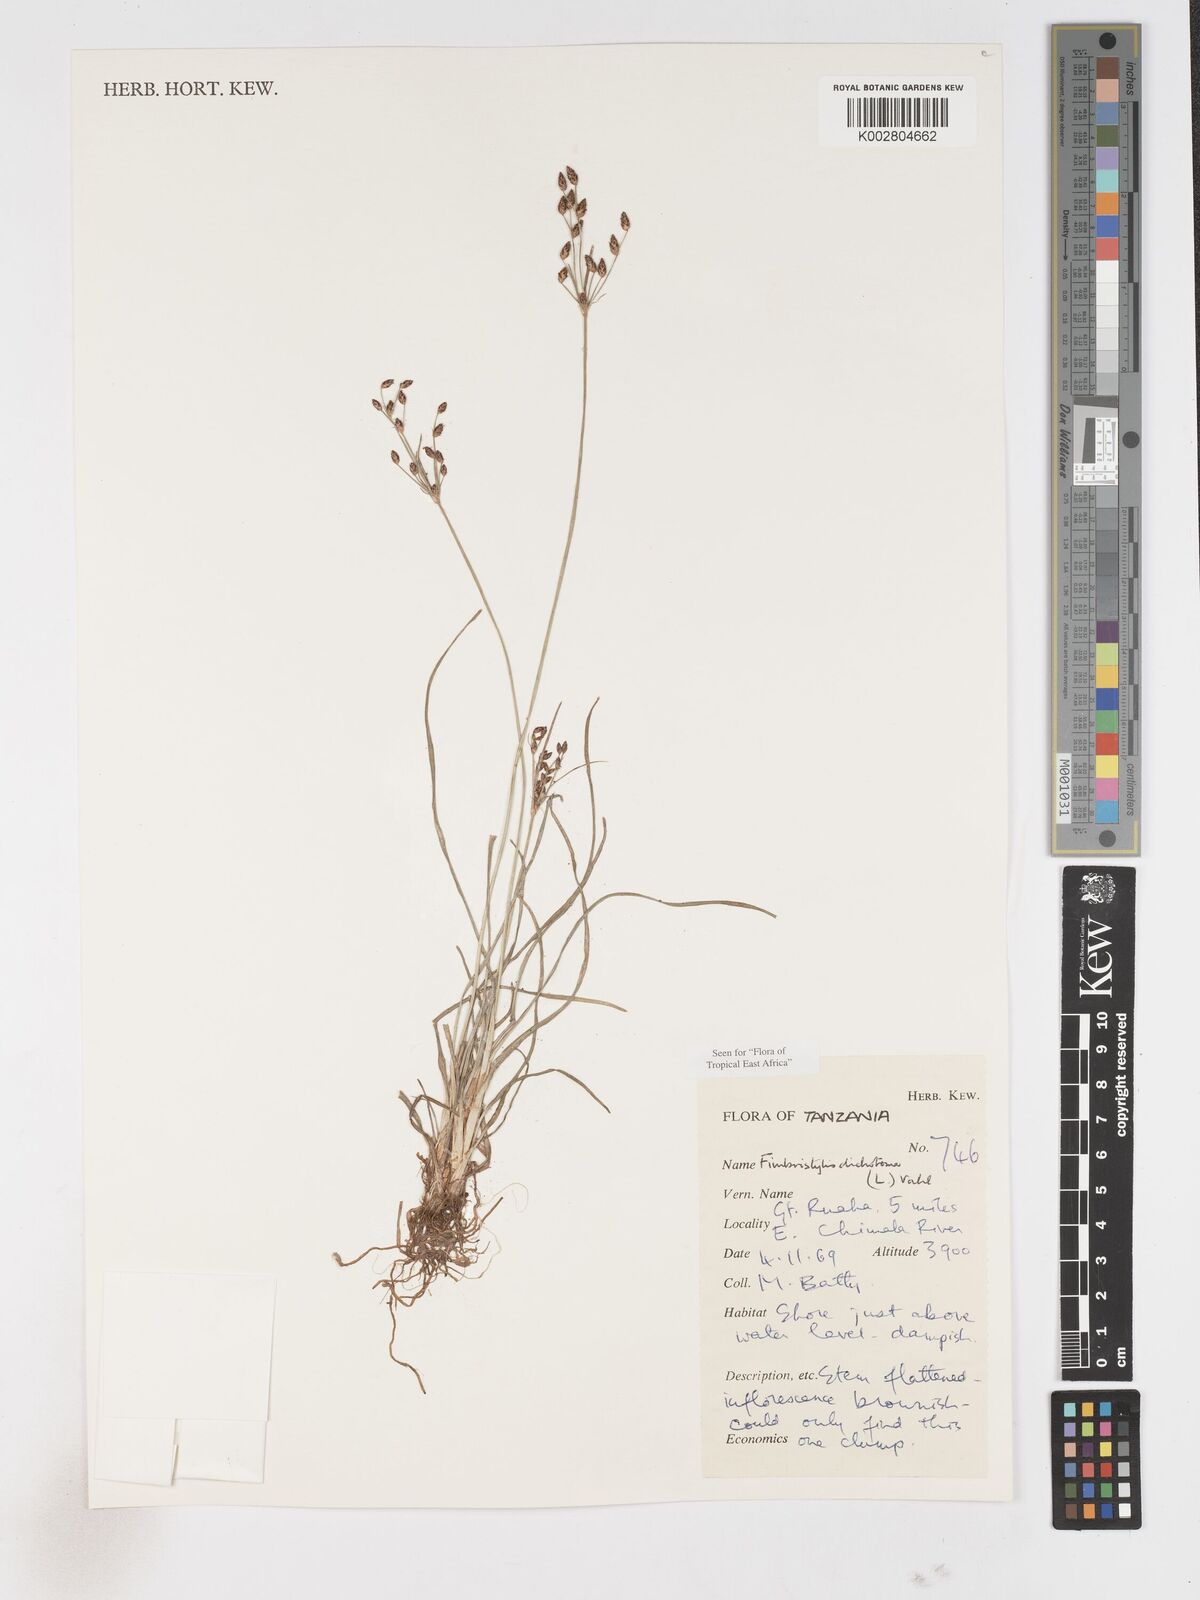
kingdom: Plantae
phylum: Tracheophyta
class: Liliopsida
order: Poales
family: Cyperaceae
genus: Fimbristylis
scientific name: Fimbristylis dichotoma
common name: Forked fimbry
